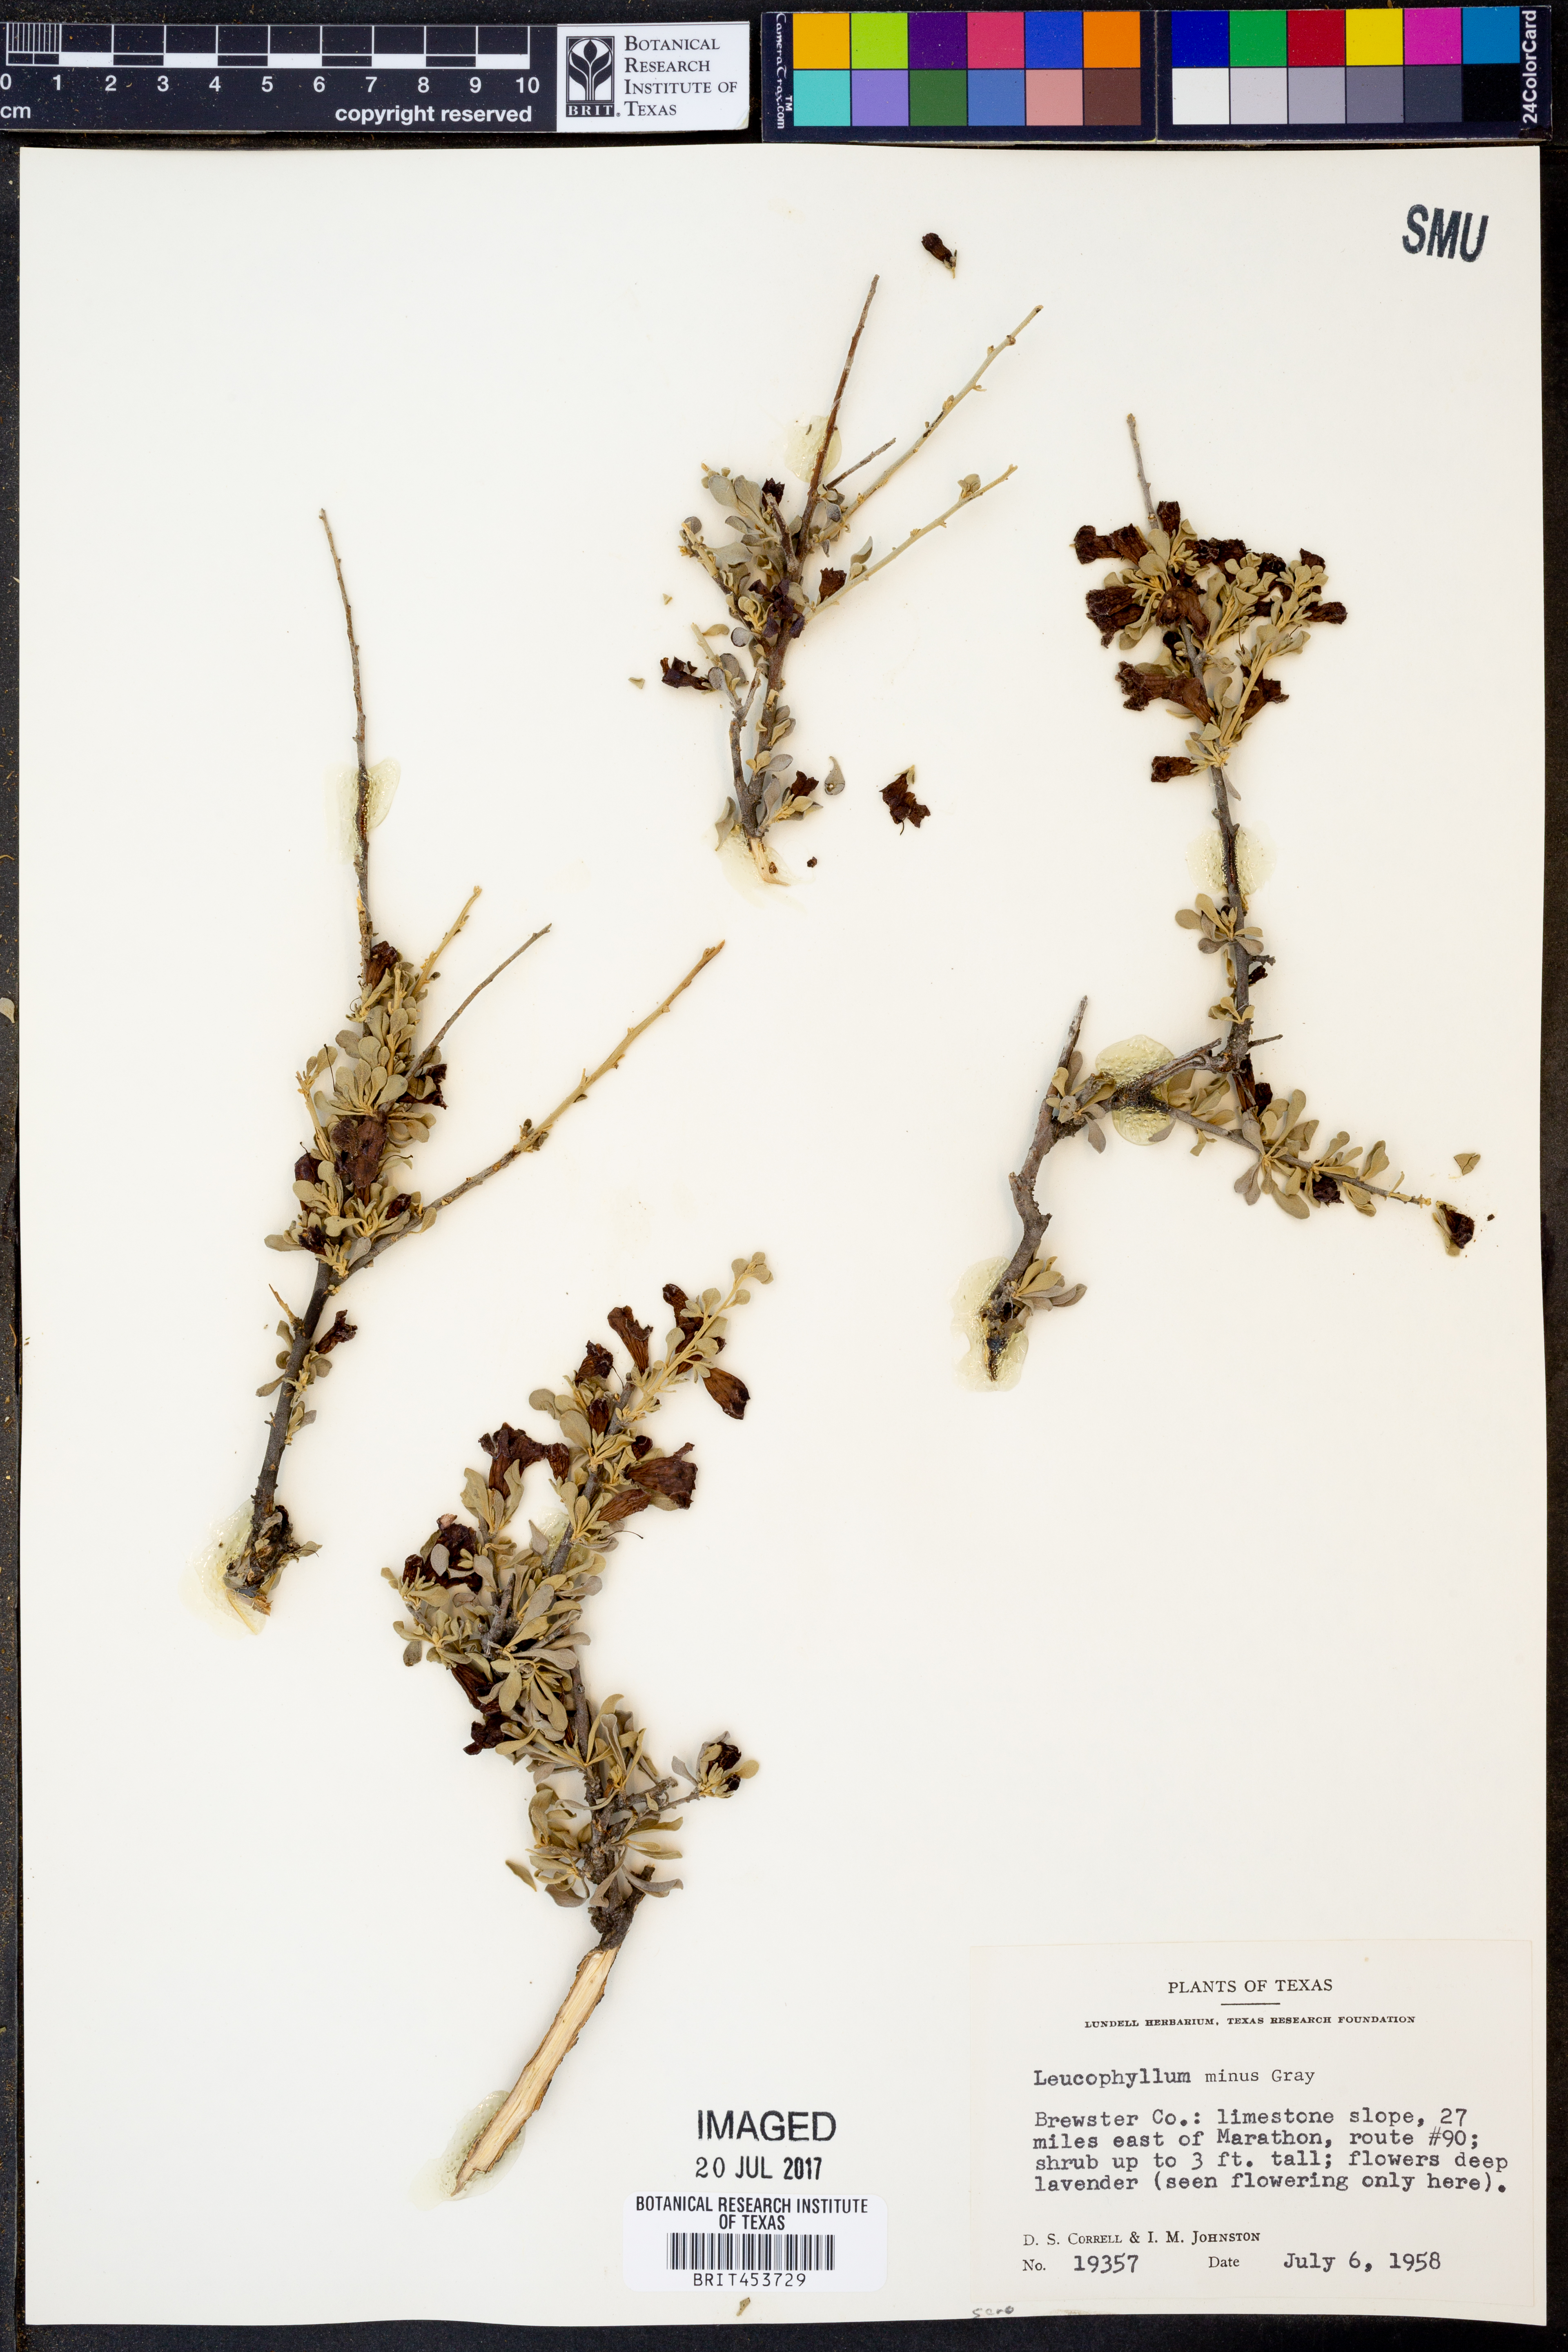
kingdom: Plantae
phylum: Tracheophyta
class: Magnoliopsida
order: Lamiales
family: Scrophulariaceae
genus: Leucophyllum
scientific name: Leucophyllum minus
